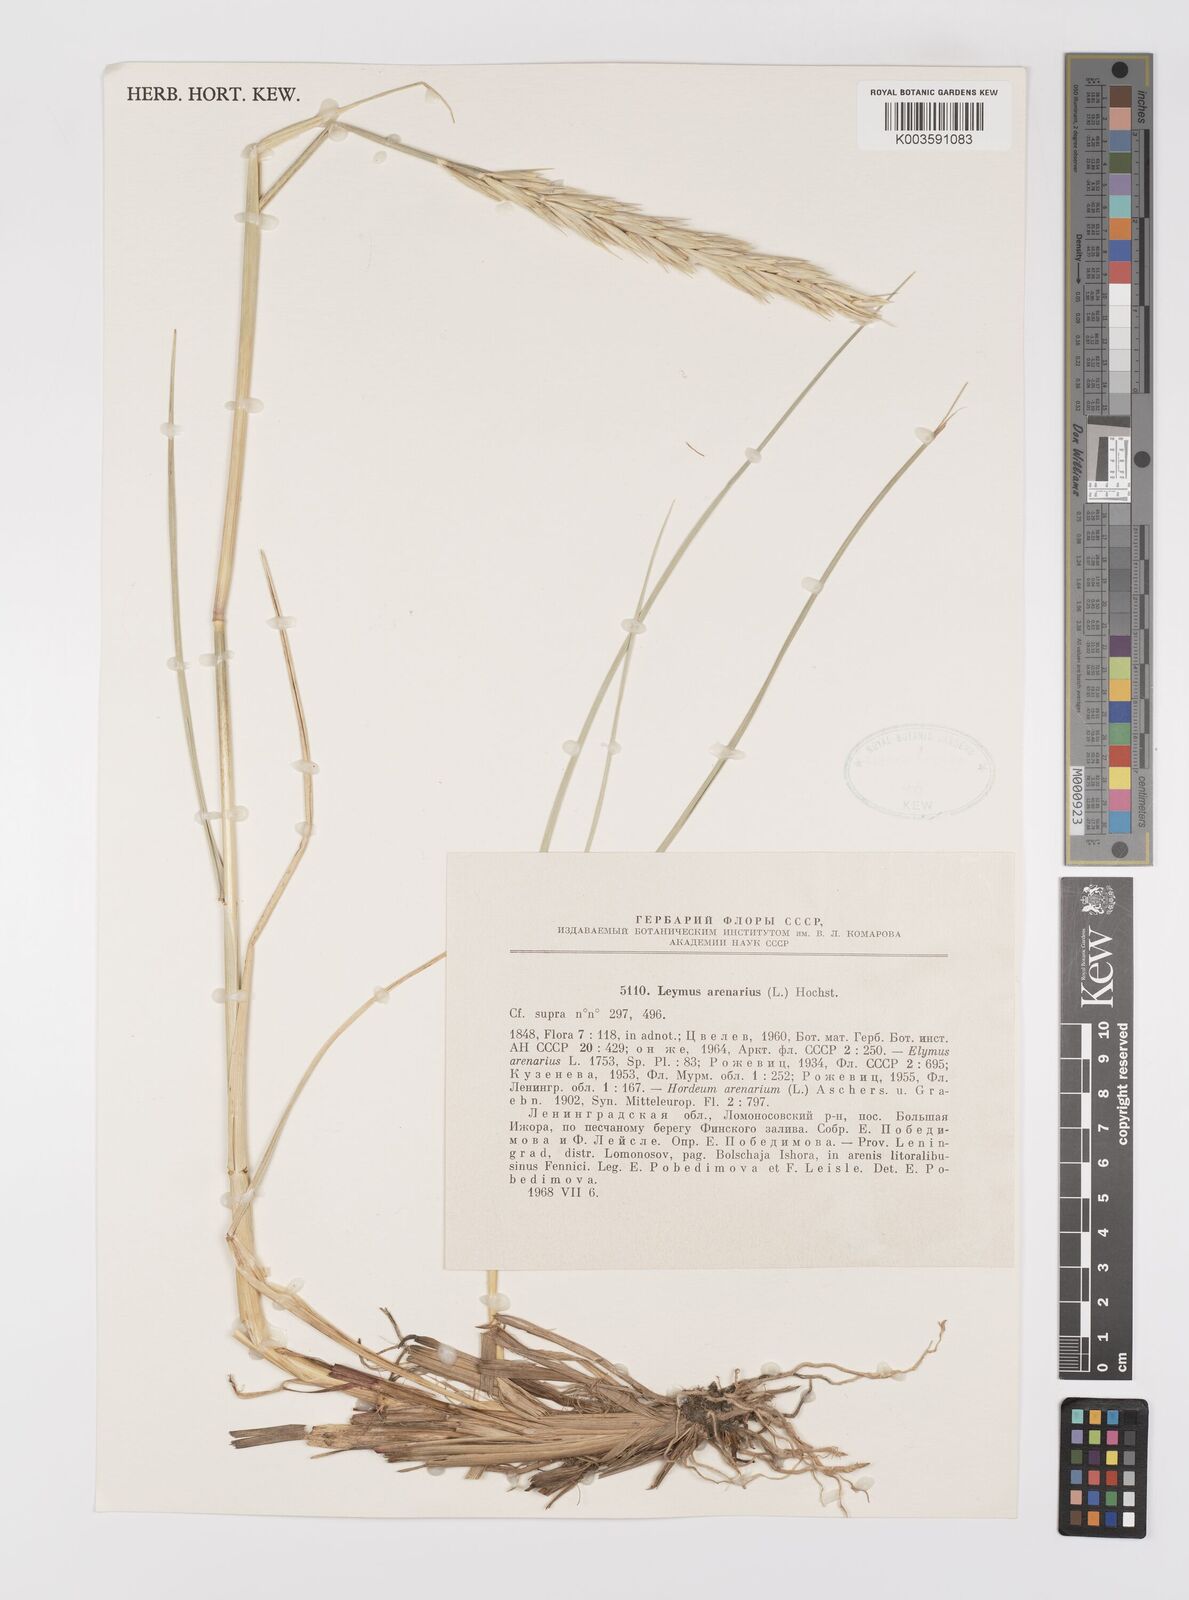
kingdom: Plantae
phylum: Tracheophyta
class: Liliopsida
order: Poales
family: Poaceae
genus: Leymus
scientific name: Leymus arenarius
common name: Lyme-grass
